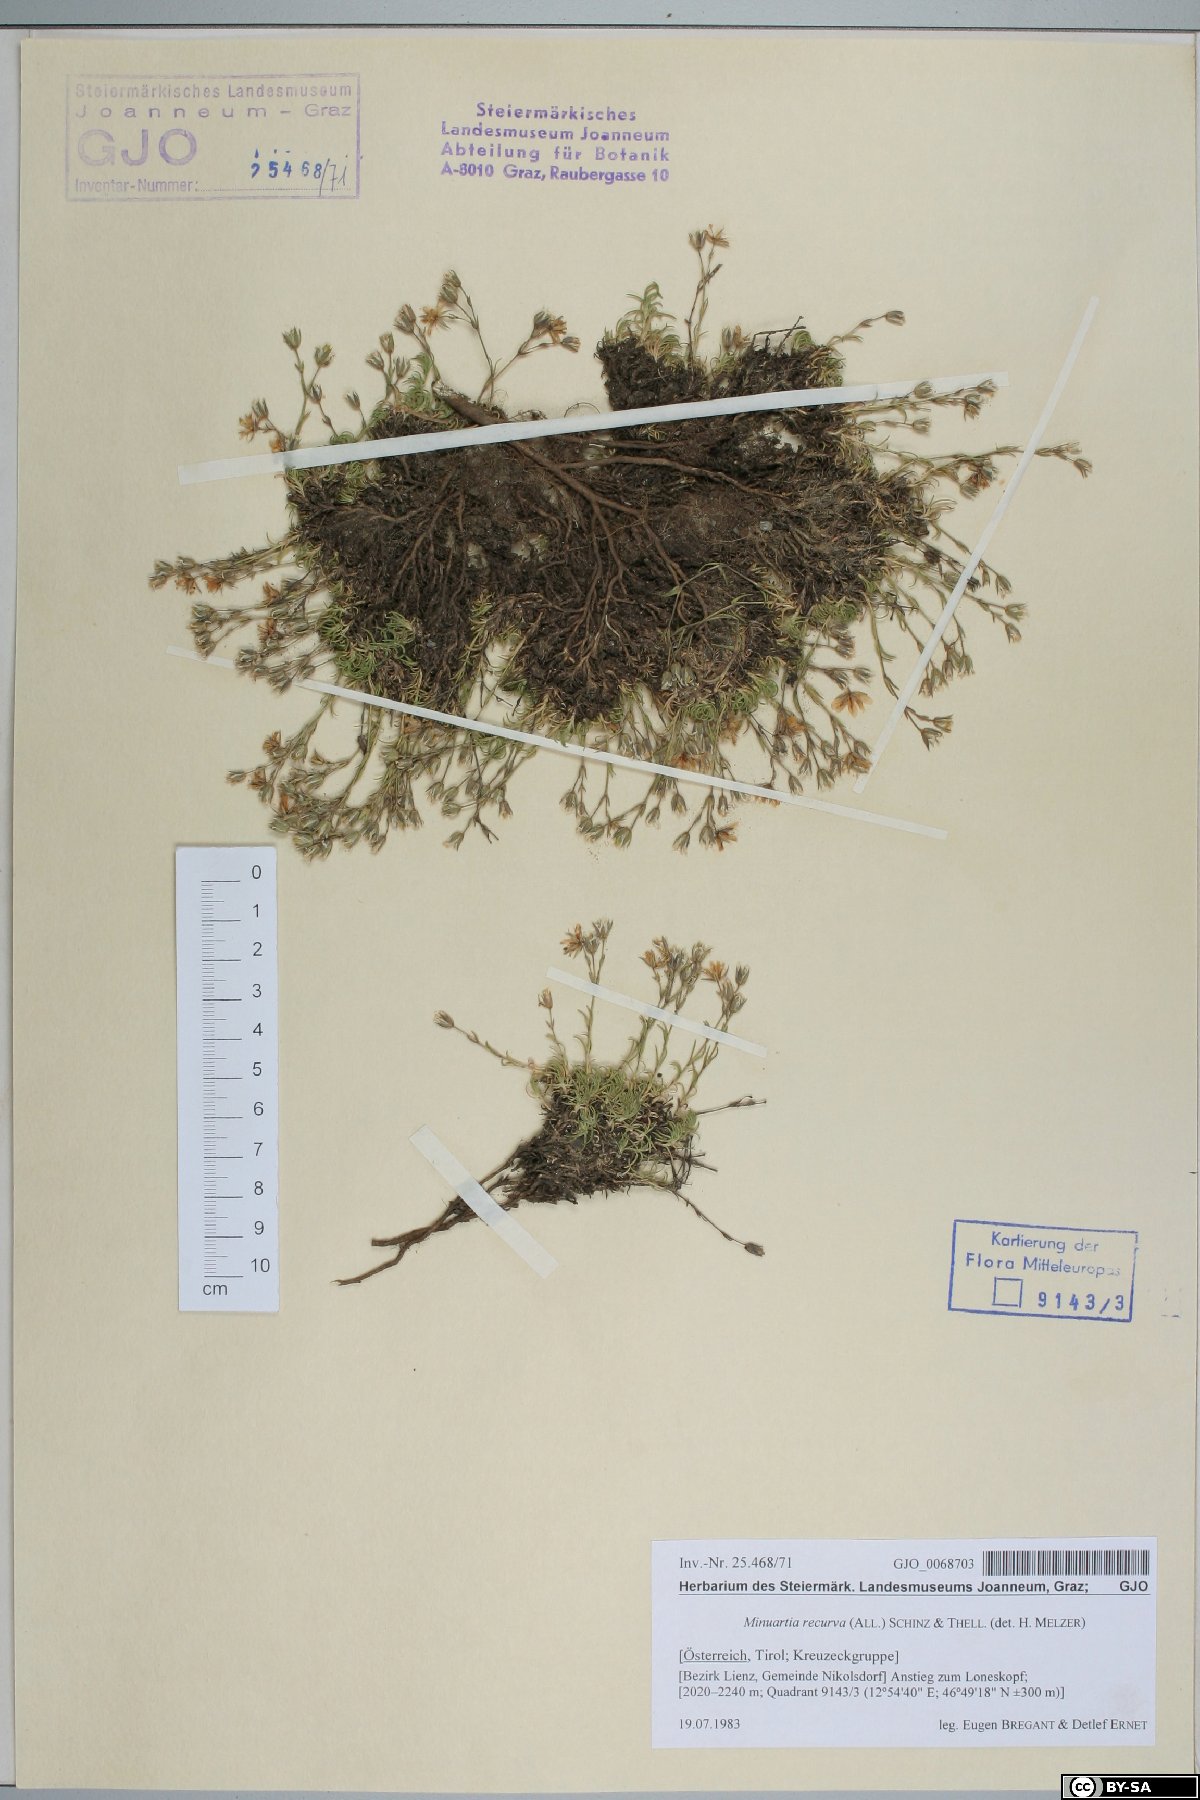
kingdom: Plantae
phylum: Tracheophyta
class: Magnoliopsida
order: Caryophyllales
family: Caryophyllaceae
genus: Minuartia
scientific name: Minuartia recurva
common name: Recurved sandwort
